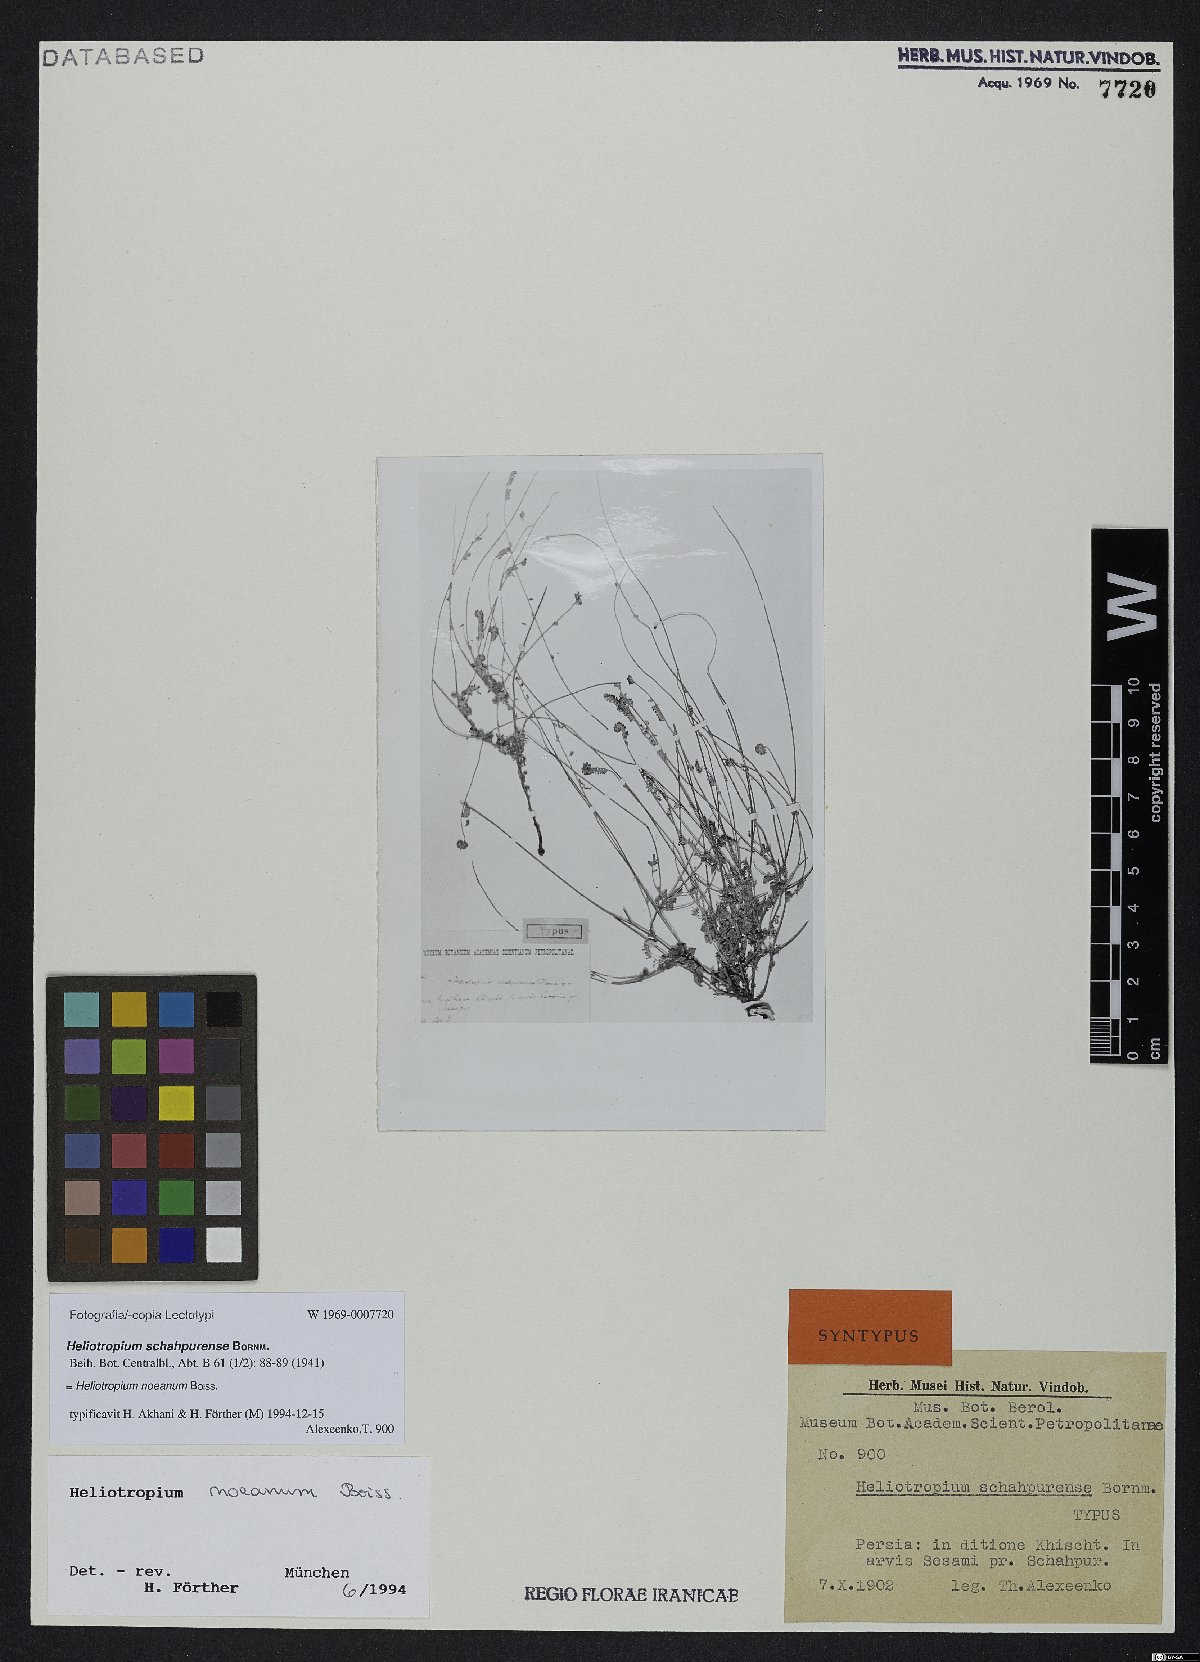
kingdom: Plantae
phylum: Tracheophyta
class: Magnoliopsida
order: Boraginales
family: Heliotropiaceae
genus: Heliotropium
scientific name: Heliotropium noeanum
